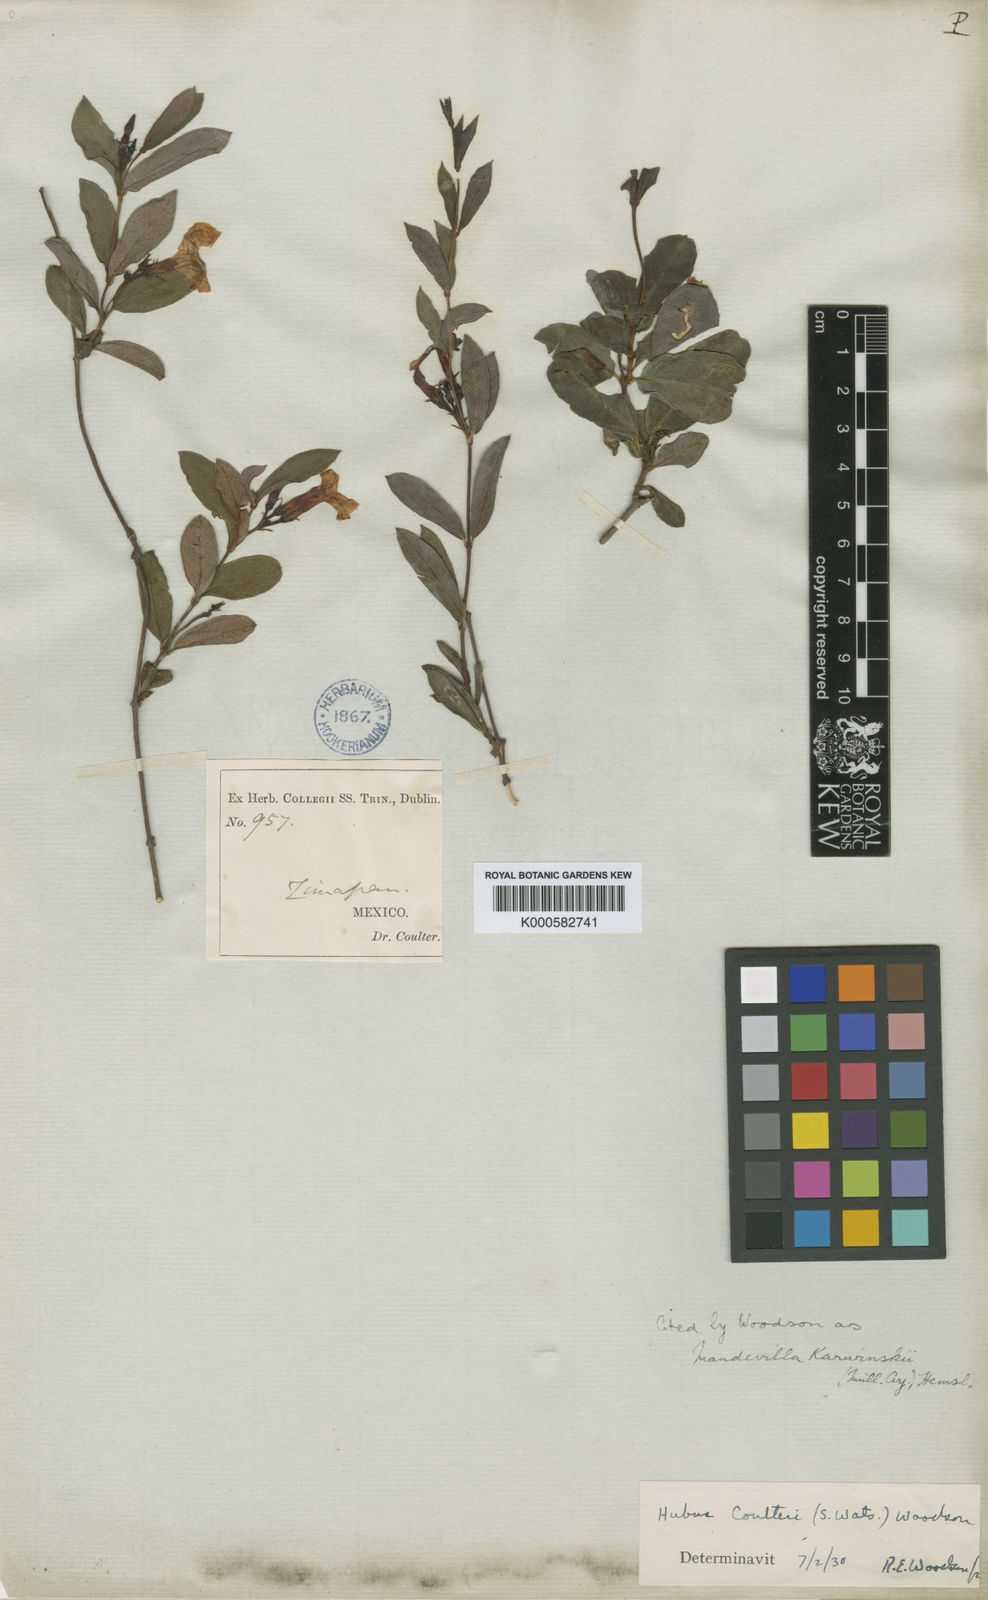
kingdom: Plantae
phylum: Tracheophyta
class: Magnoliopsida
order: Gentianales
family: Apocynaceae
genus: Mandevilla
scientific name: Mandevilla
